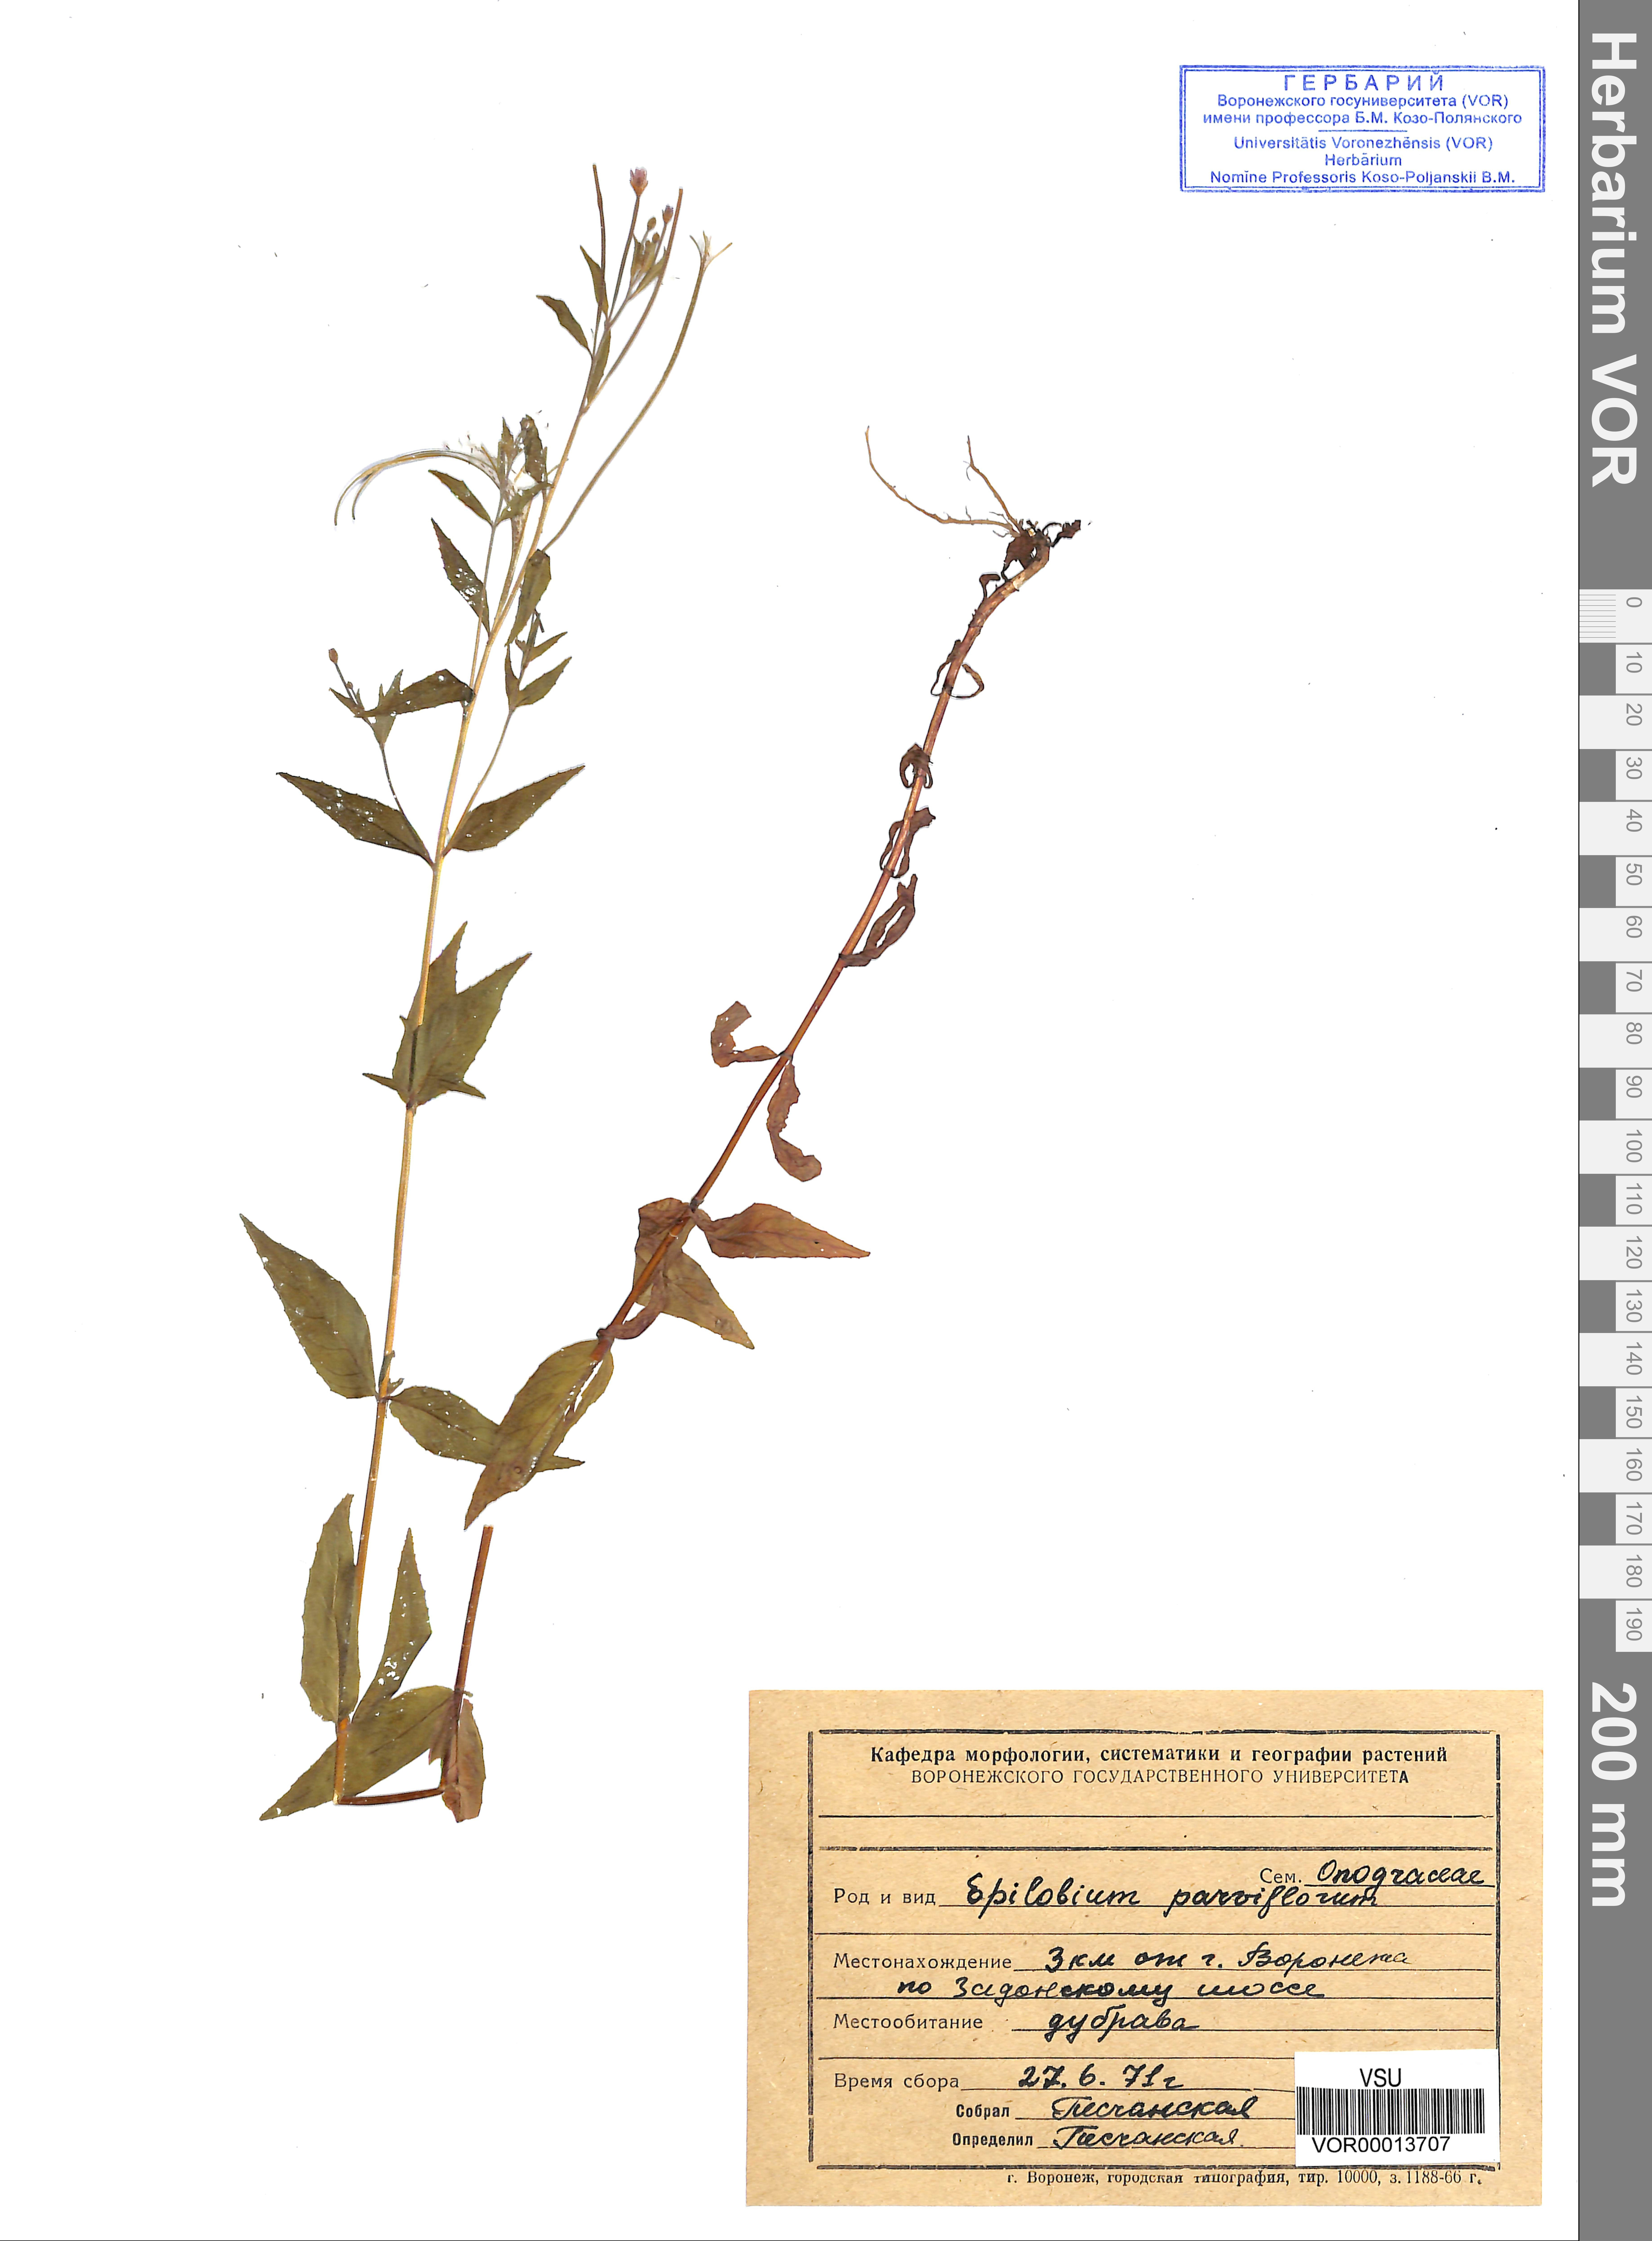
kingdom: Plantae
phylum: Tracheophyta
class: Magnoliopsida
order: Myrtales
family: Onagraceae
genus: Epilobium
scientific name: Epilobium parviflorum
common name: Hoary willowherb
